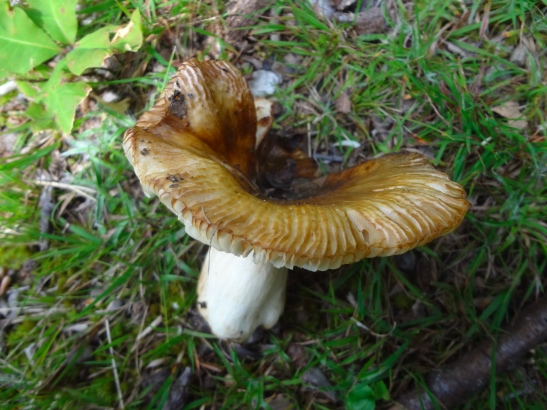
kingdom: Fungi
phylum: Basidiomycota
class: Agaricomycetes
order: Russulales
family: Russulaceae
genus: Russula
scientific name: Russula foetens
